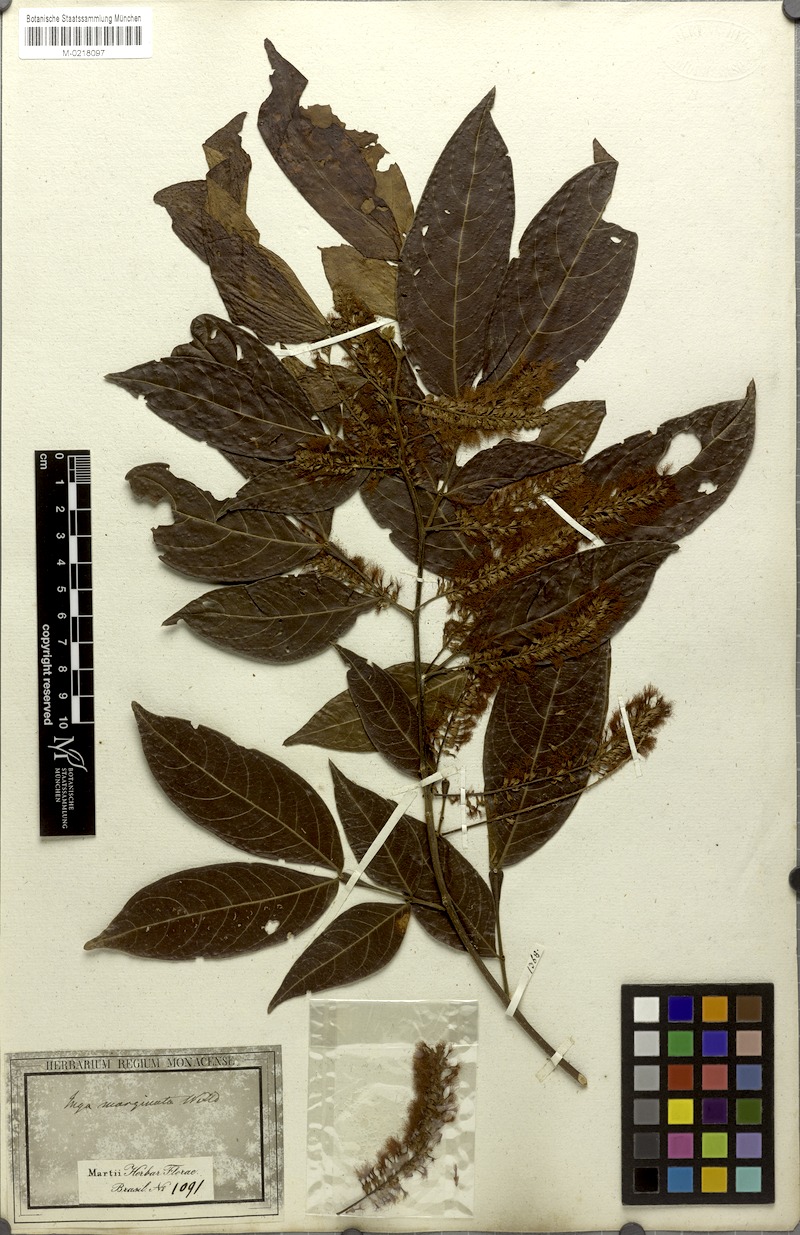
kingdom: Plantae
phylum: Tracheophyta
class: Magnoliopsida
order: Fabales
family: Fabaceae
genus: Inga
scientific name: Inga marginata
